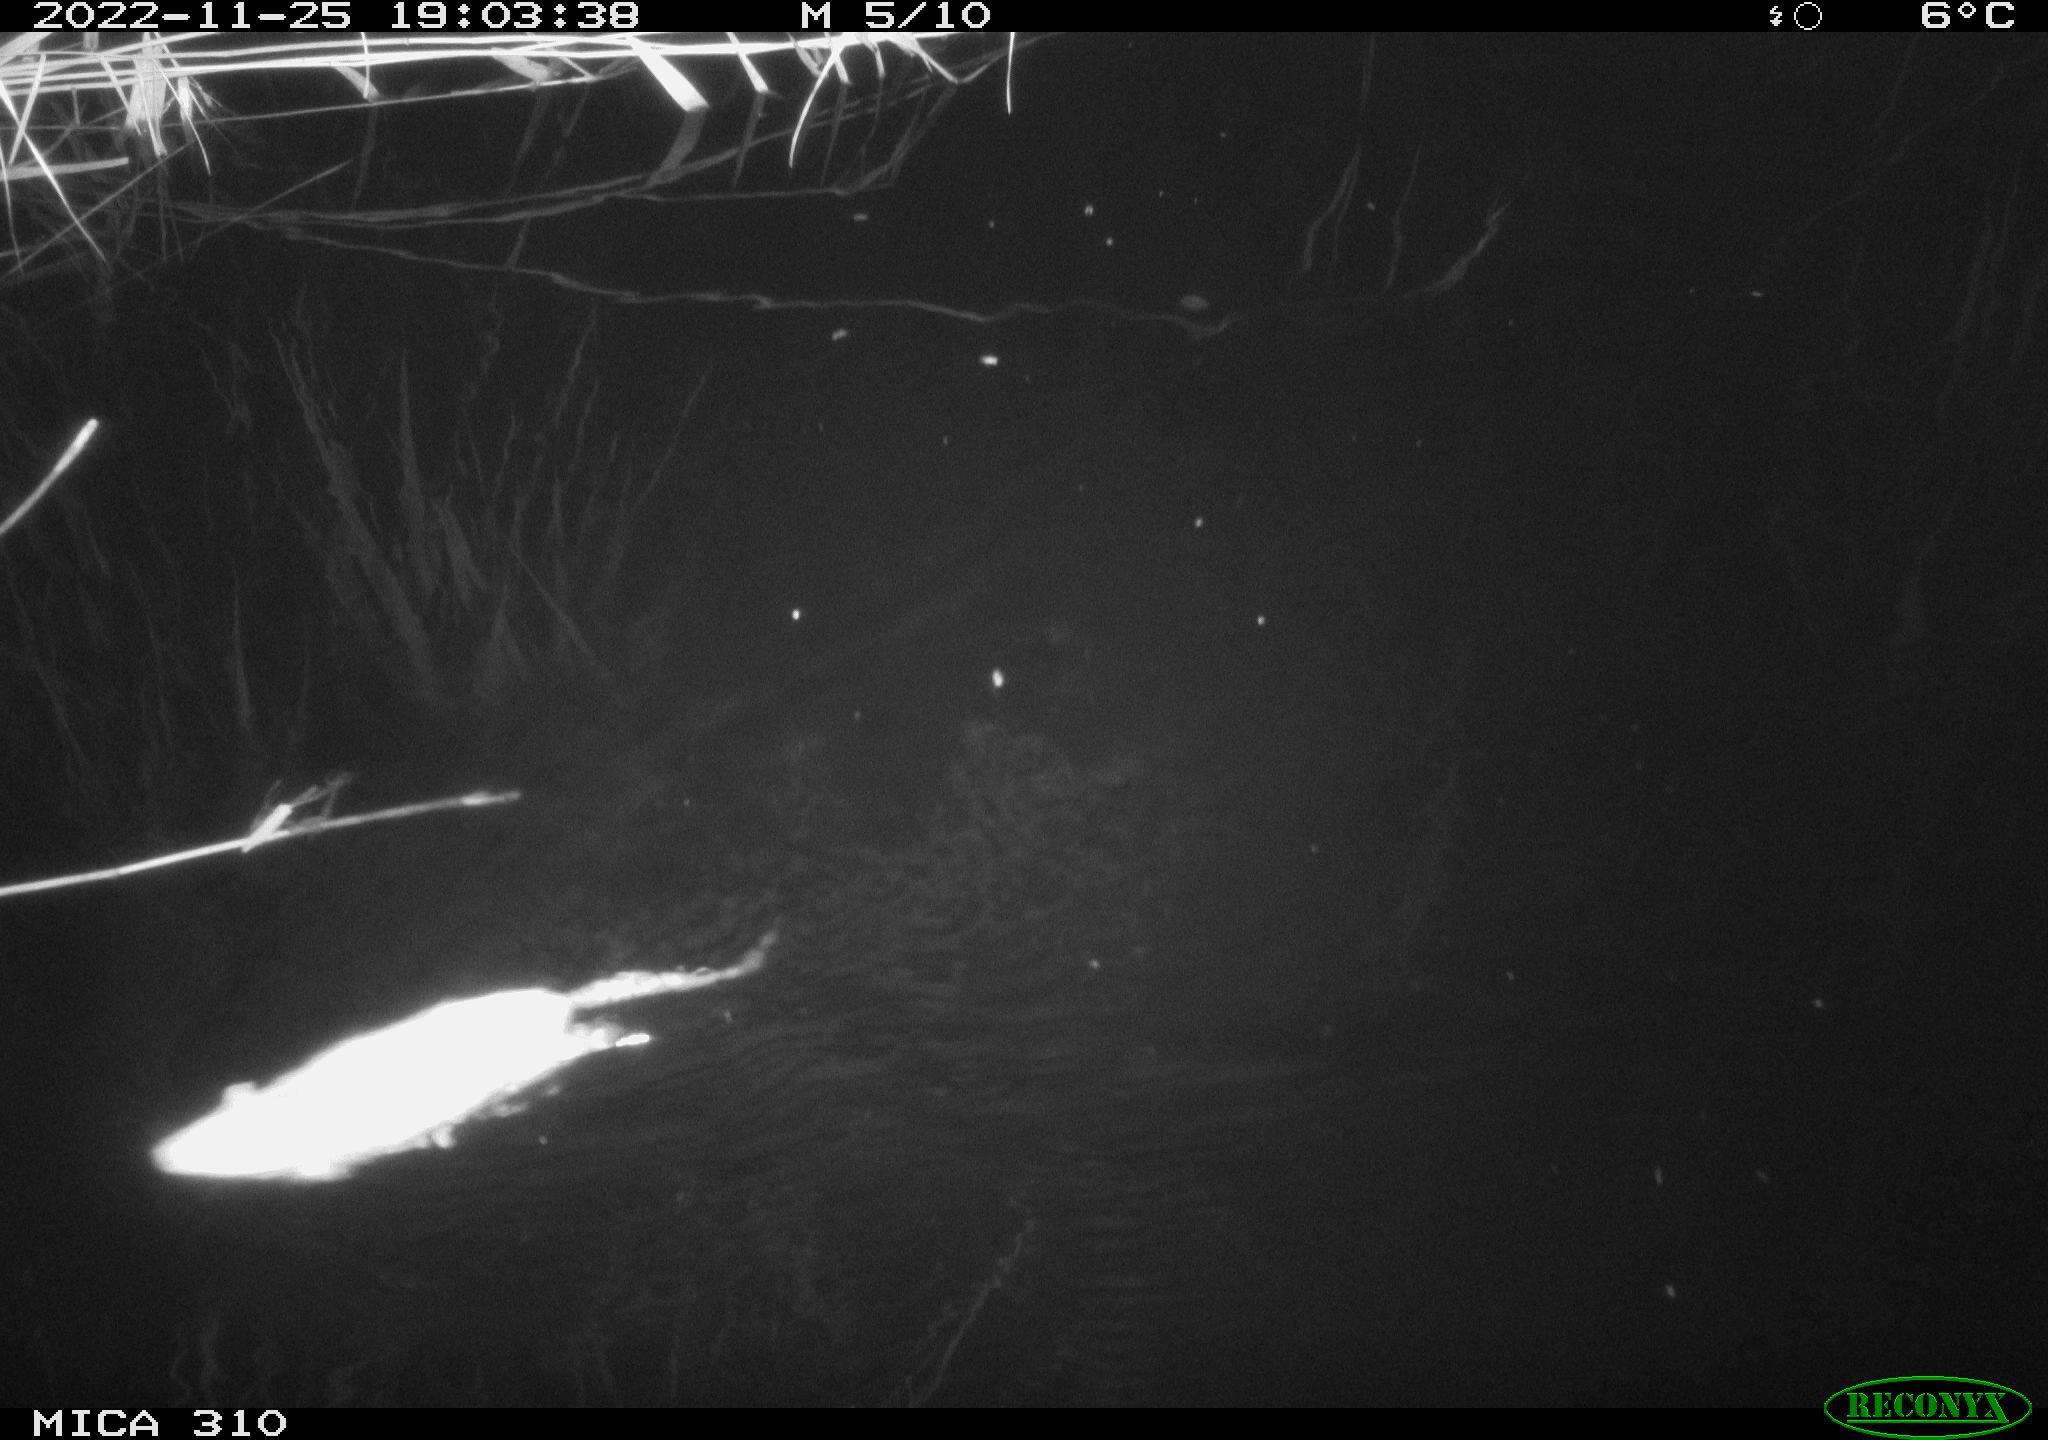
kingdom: Animalia
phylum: Chordata
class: Mammalia
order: Rodentia
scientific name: Rodentia
